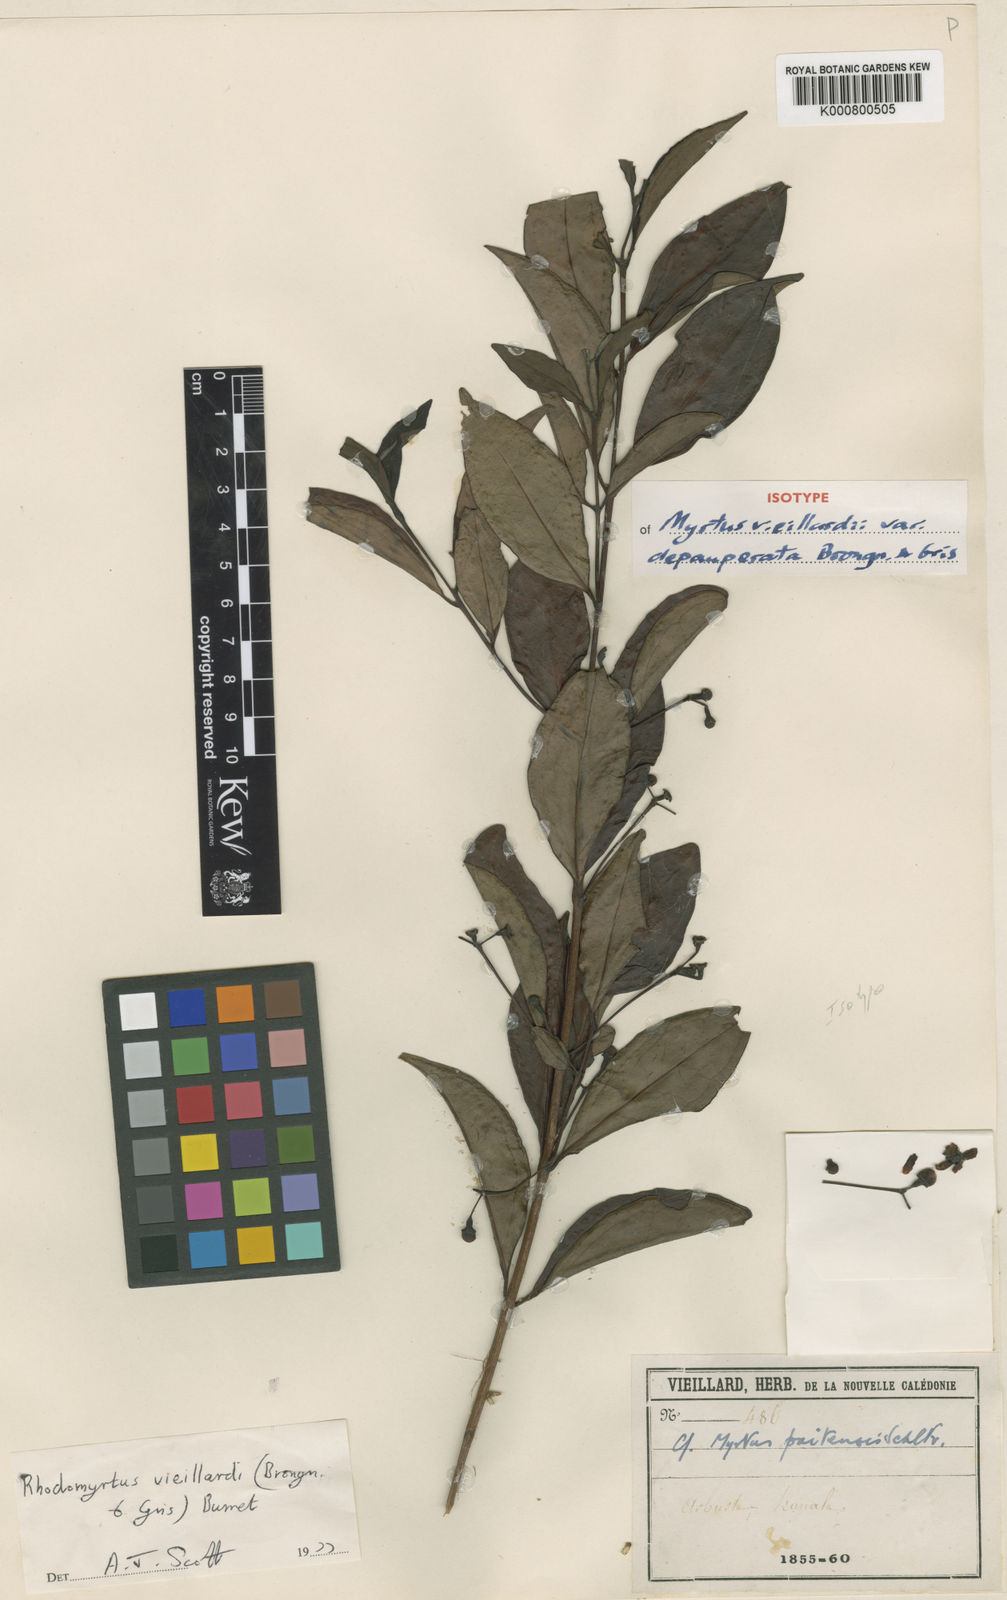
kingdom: Plantae
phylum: Tracheophyta
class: Magnoliopsida
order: Myrtales
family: Myrtaceae
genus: Archirhodomyrtus
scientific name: Archirhodomyrtus vieillardii
